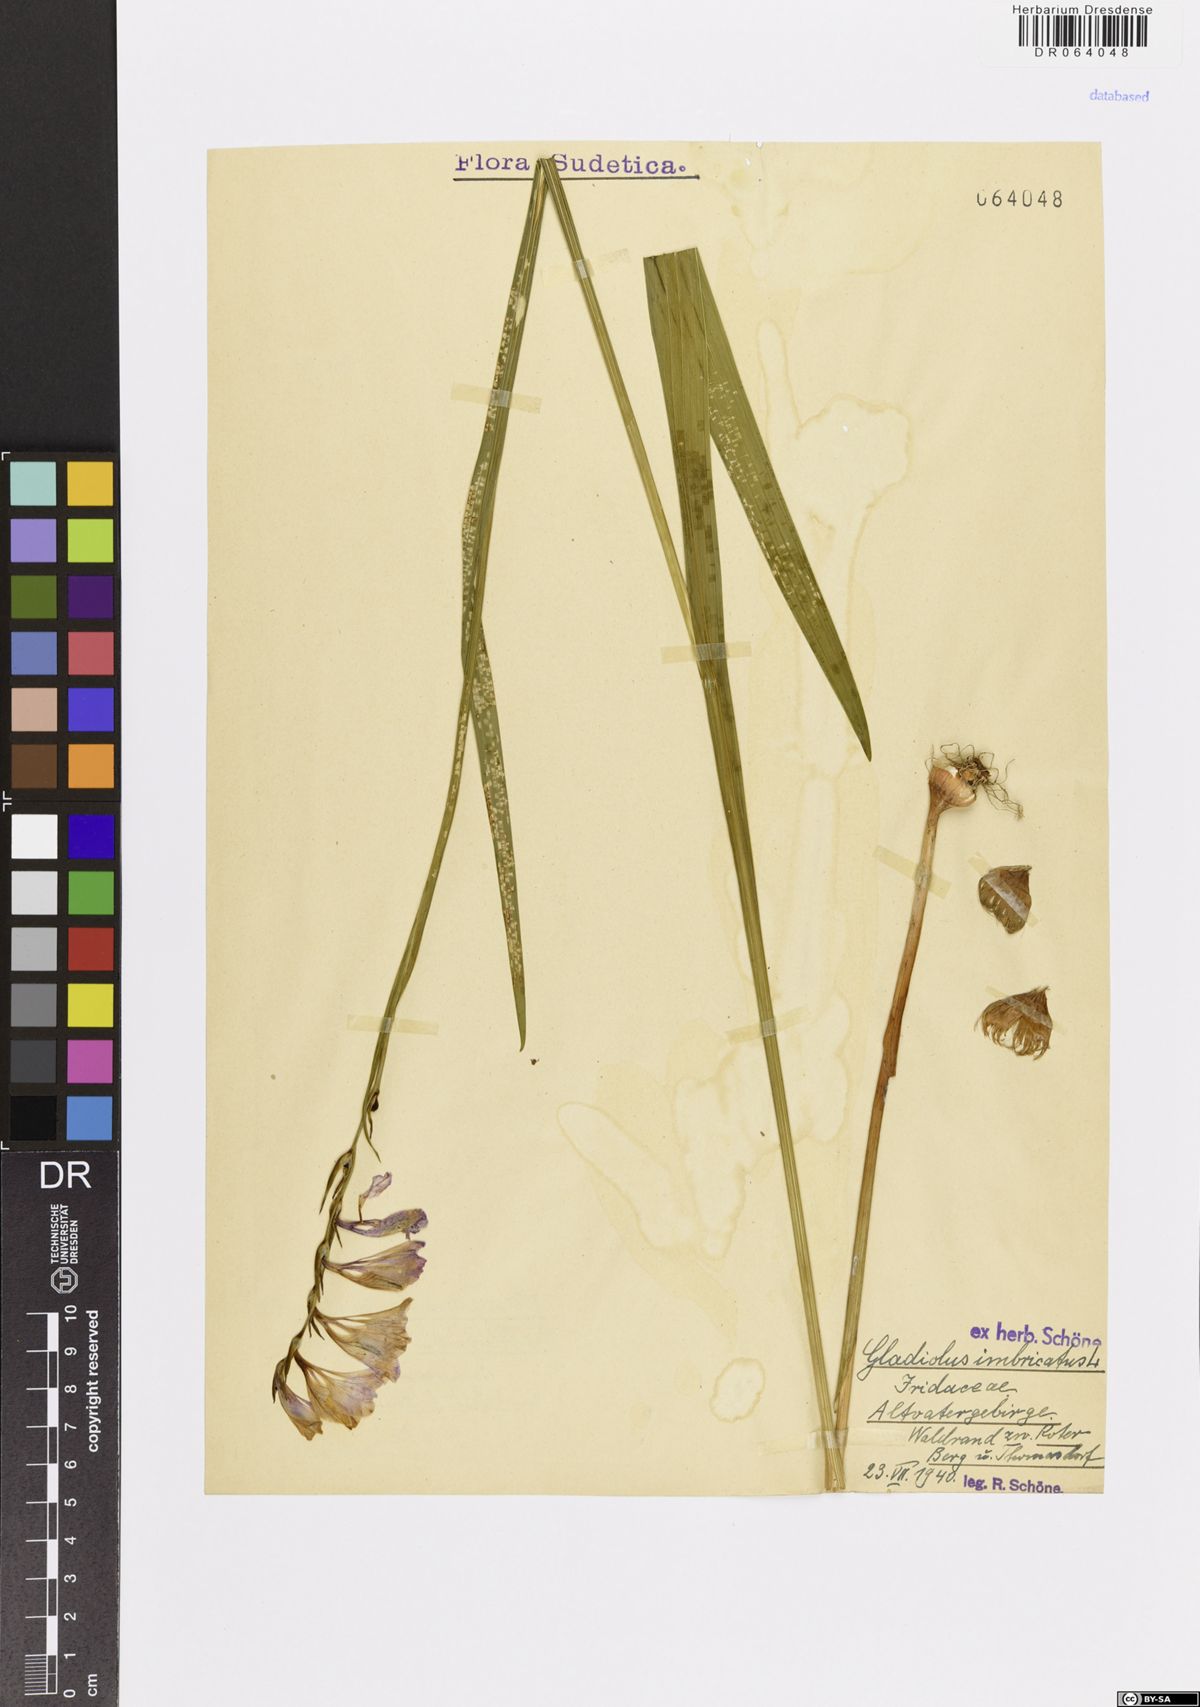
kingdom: Plantae
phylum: Tracheophyta
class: Liliopsida
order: Asparagales
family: Iridaceae
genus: Gladiolus
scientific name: Gladiolus imbricatus
